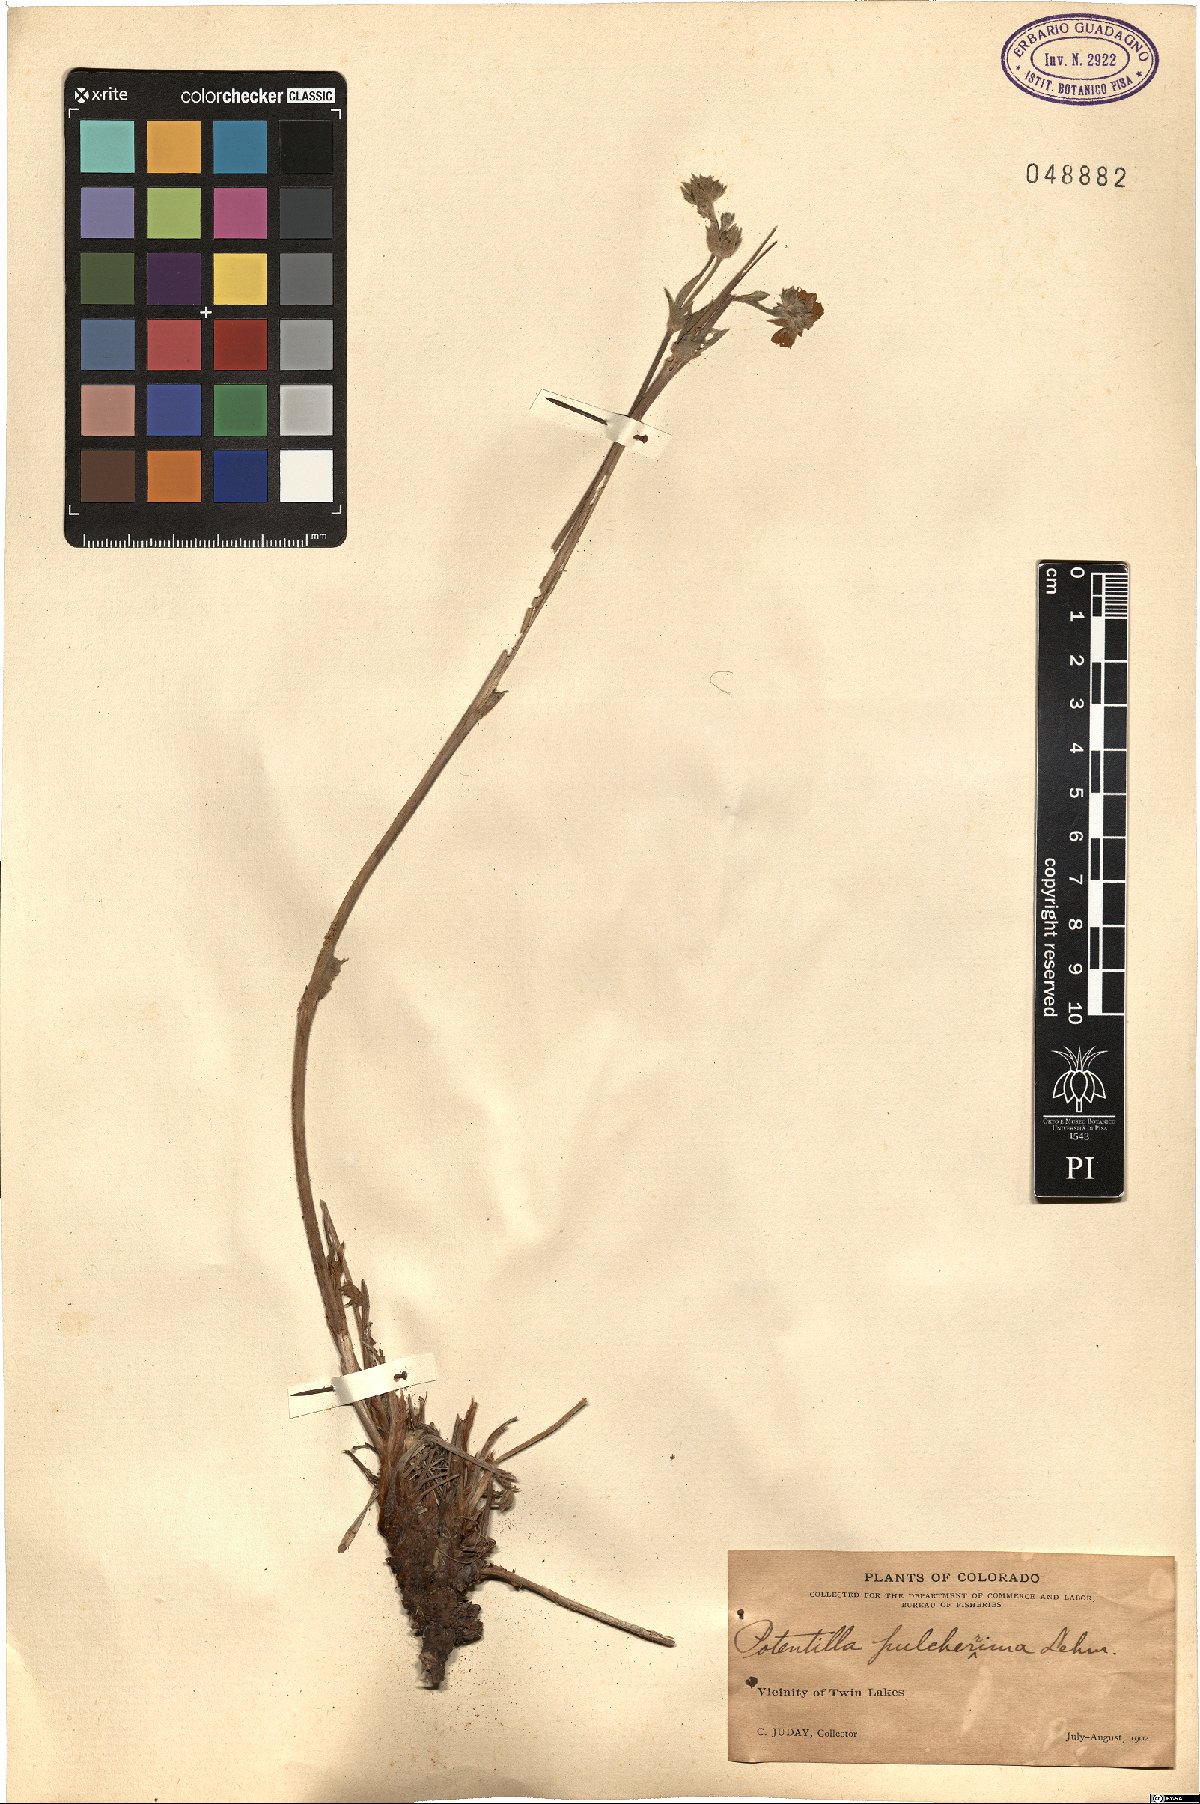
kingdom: Plantae
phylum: Tracheophyta
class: Magnoliopsida
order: Rosales
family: Rosaceae
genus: Potentilla
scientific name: Potentilla pulcherrima
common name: Beautiful cinquefoil
